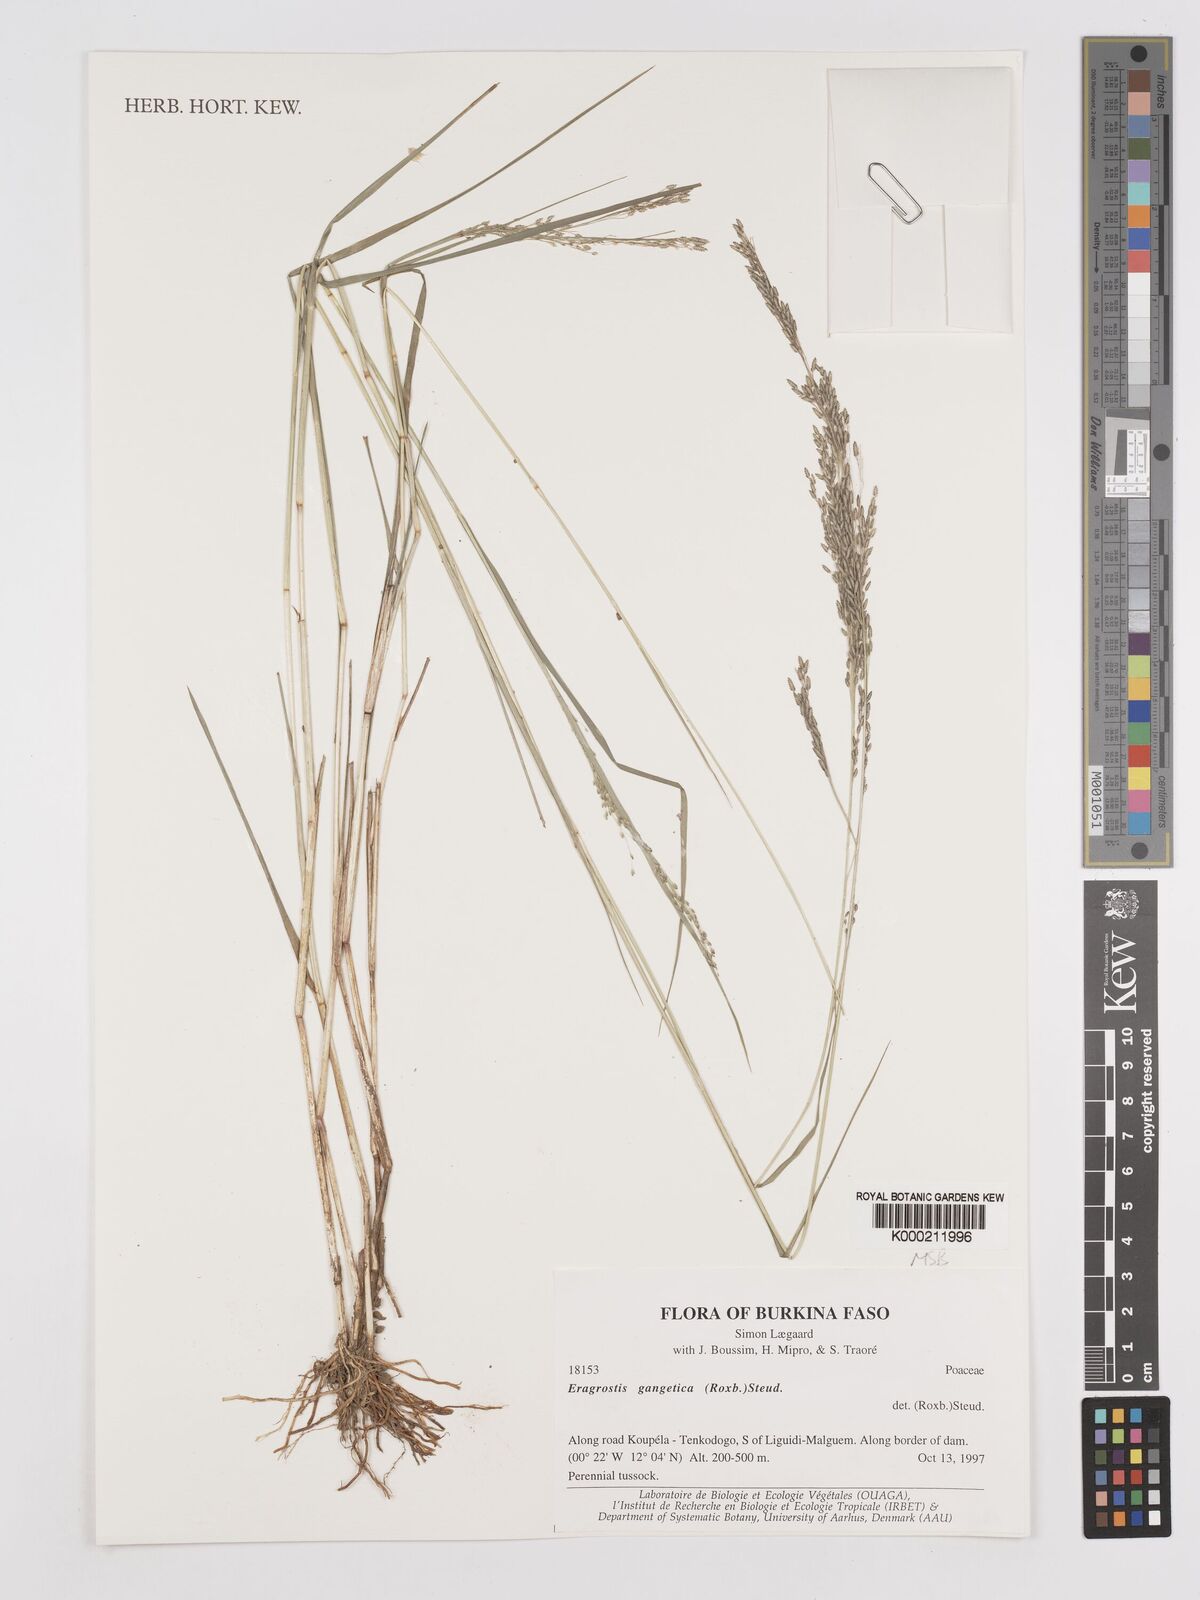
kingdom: Plantae
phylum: Tracheophyta
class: Liliopsida
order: Poales
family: Poaceae
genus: Eragrostis
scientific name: Eragrostis gangetica
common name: Slimflower lovegrass
